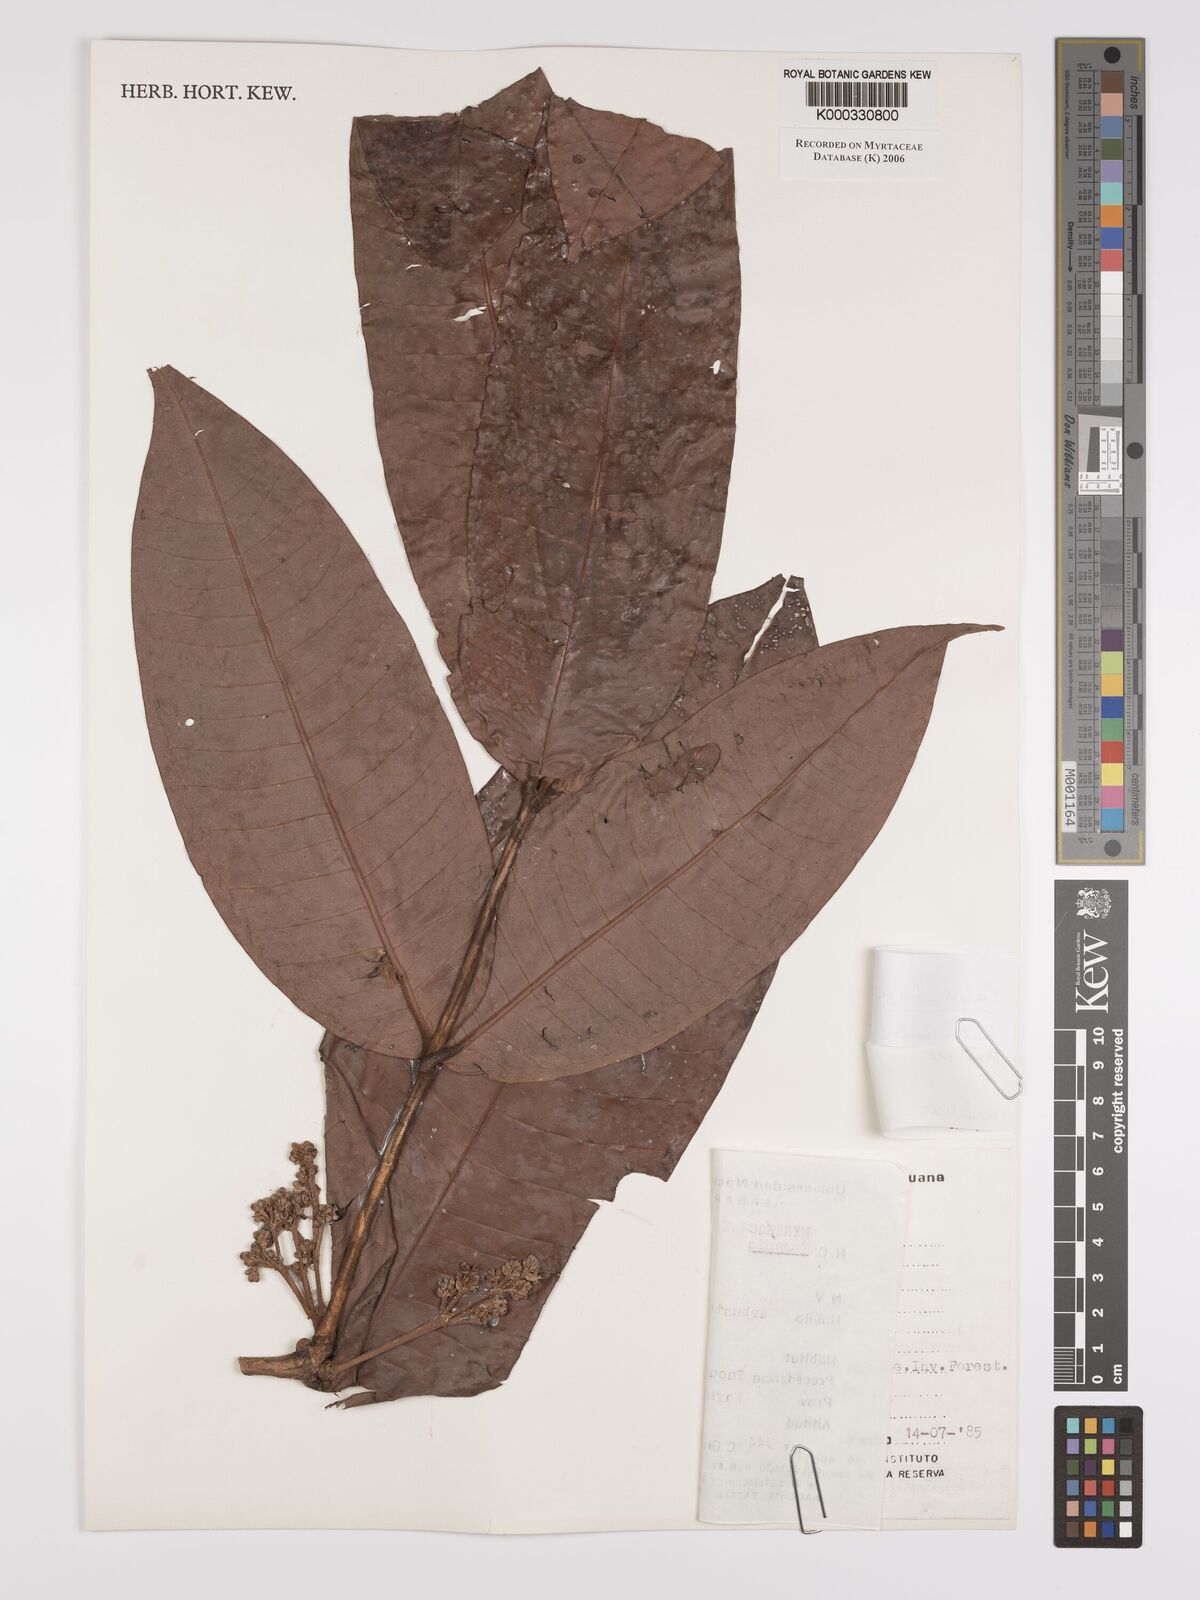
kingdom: Plantae
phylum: Tracheophyta
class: Magnoliopsida
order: Myrtales
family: Myrtaceae
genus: Marlierea
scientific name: Marlierea
